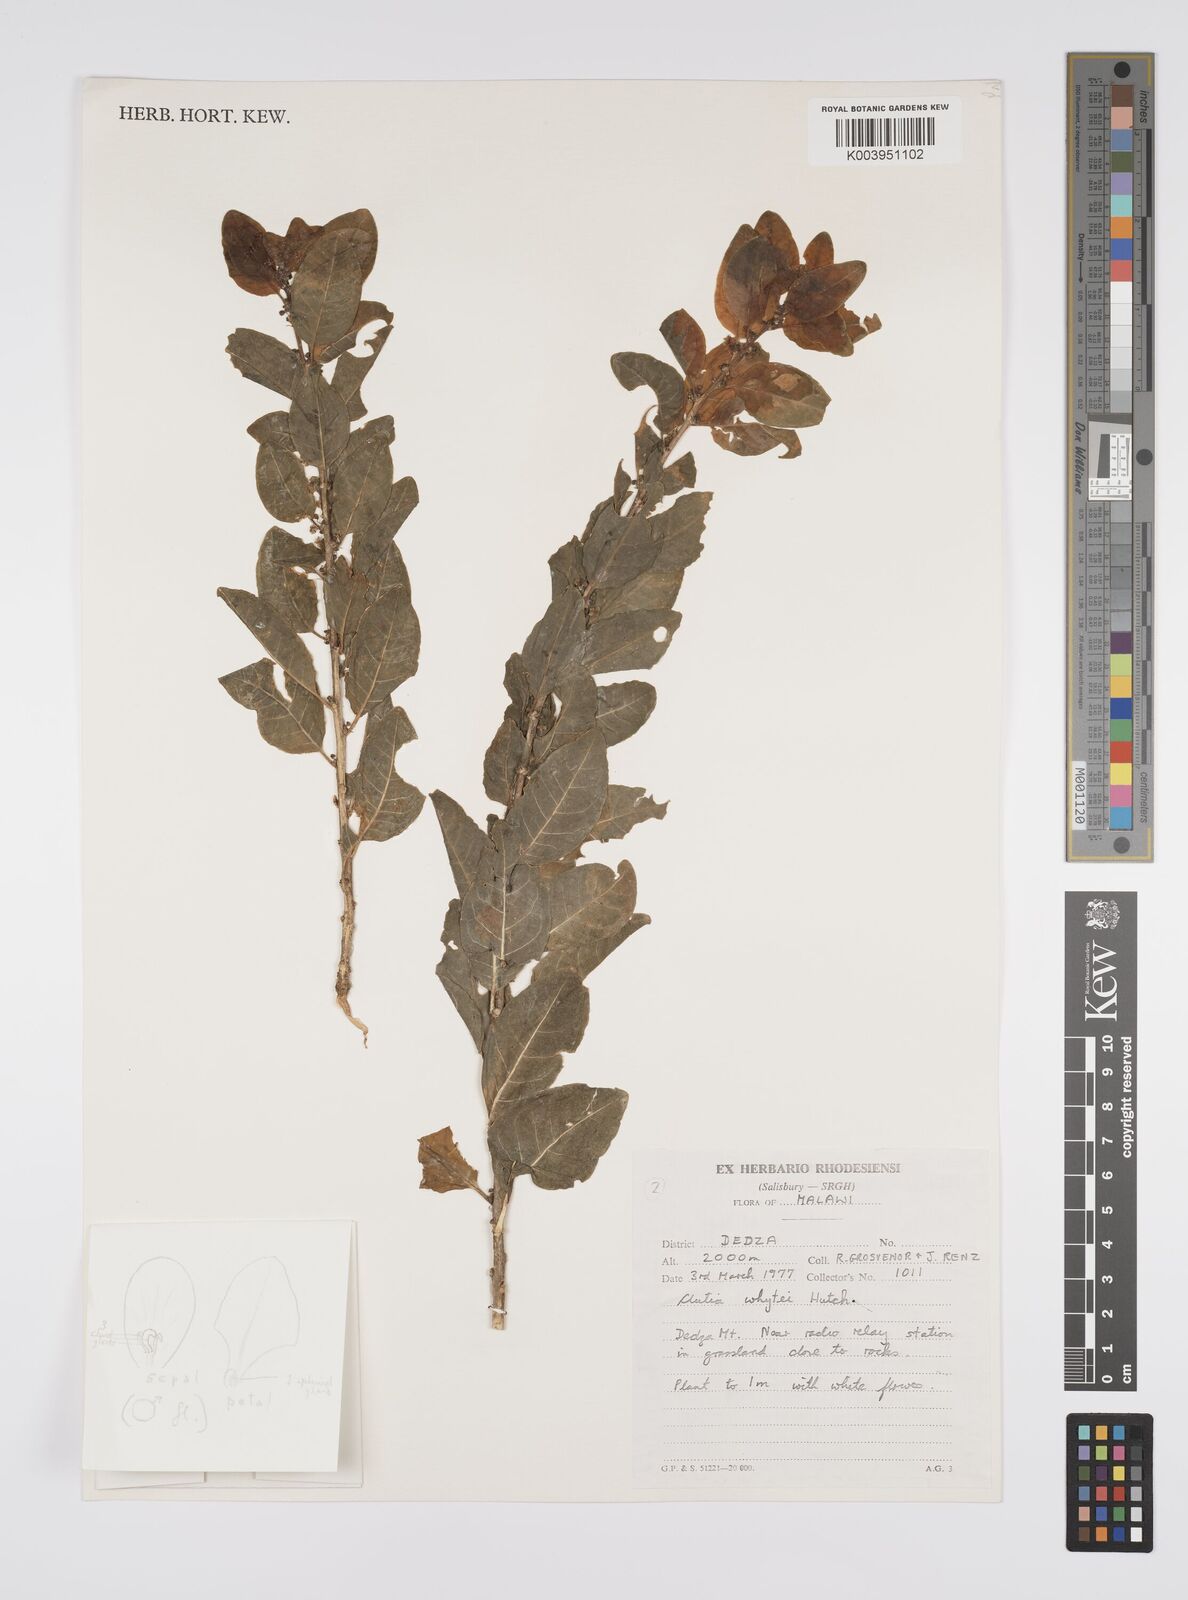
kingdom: Plantae
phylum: Tracheophyta
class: Magnoliopsida
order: Malpighiales
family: Peraceae
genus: Clutia
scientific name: Clutia whytei
